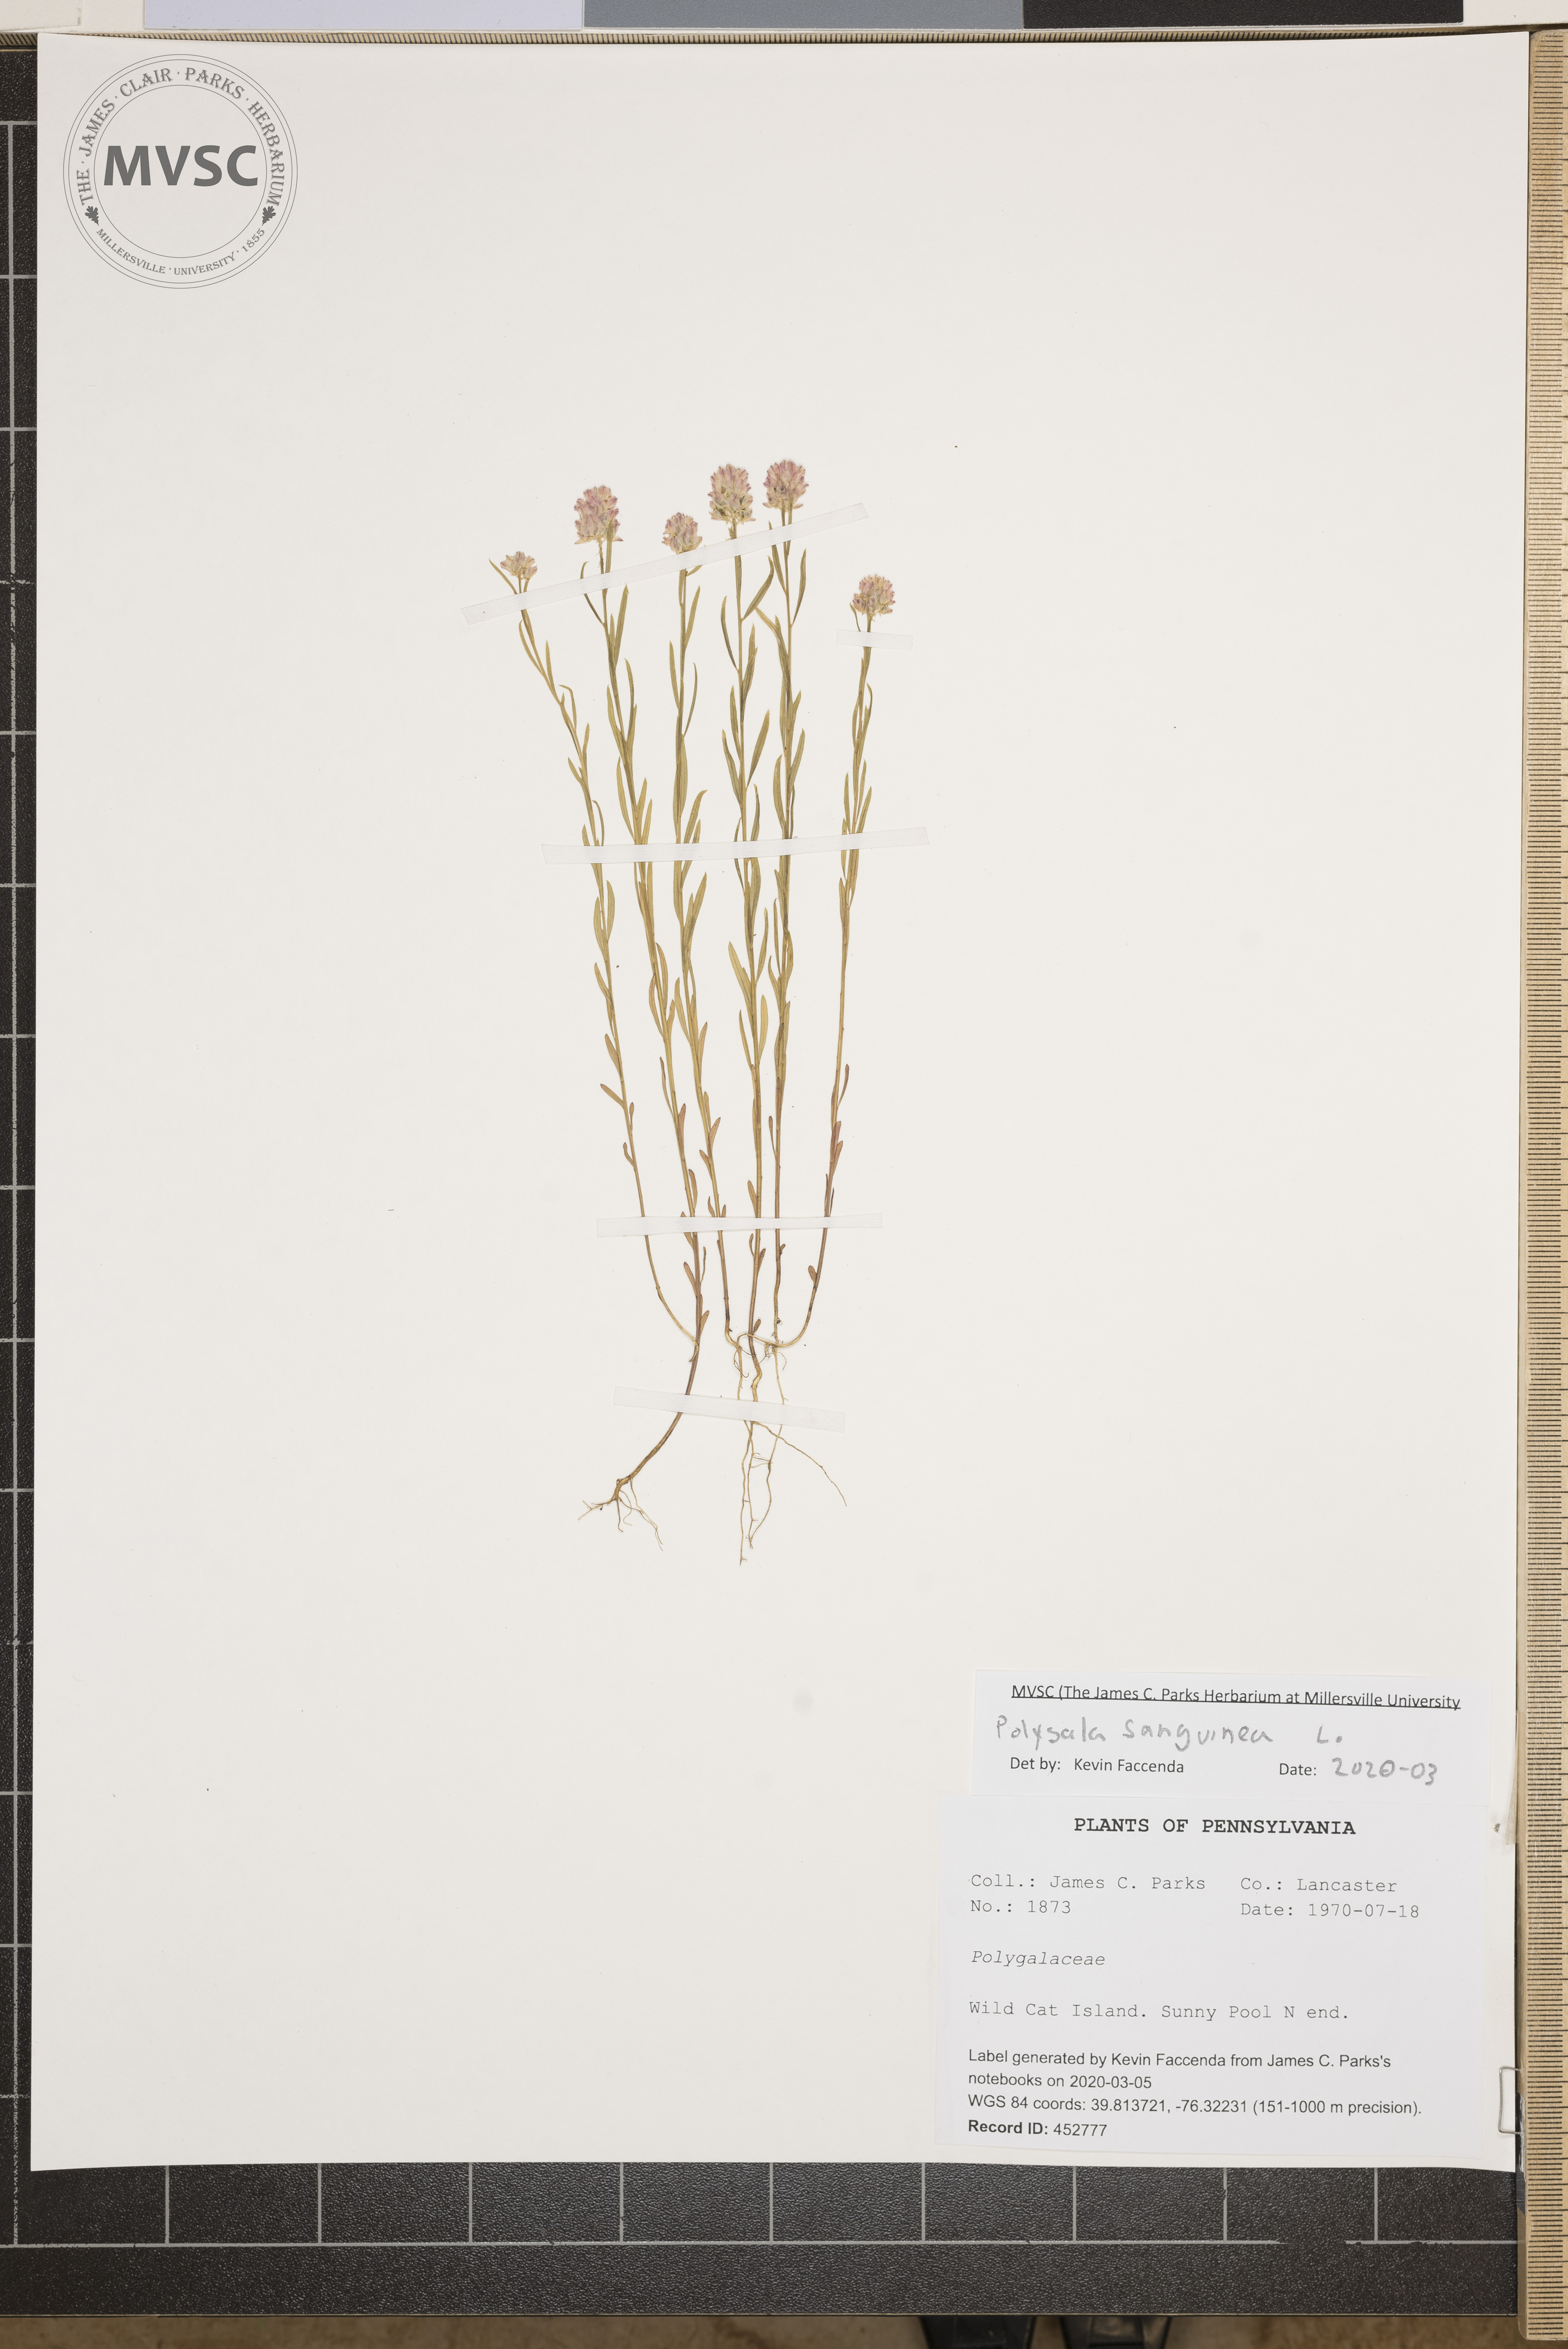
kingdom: Plantae
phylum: Tracheophyta
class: Magnoliopsida
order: Fabales
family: Polygalaceae
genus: Polygala
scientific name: Polygala sanguinea
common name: Blood milkwort
